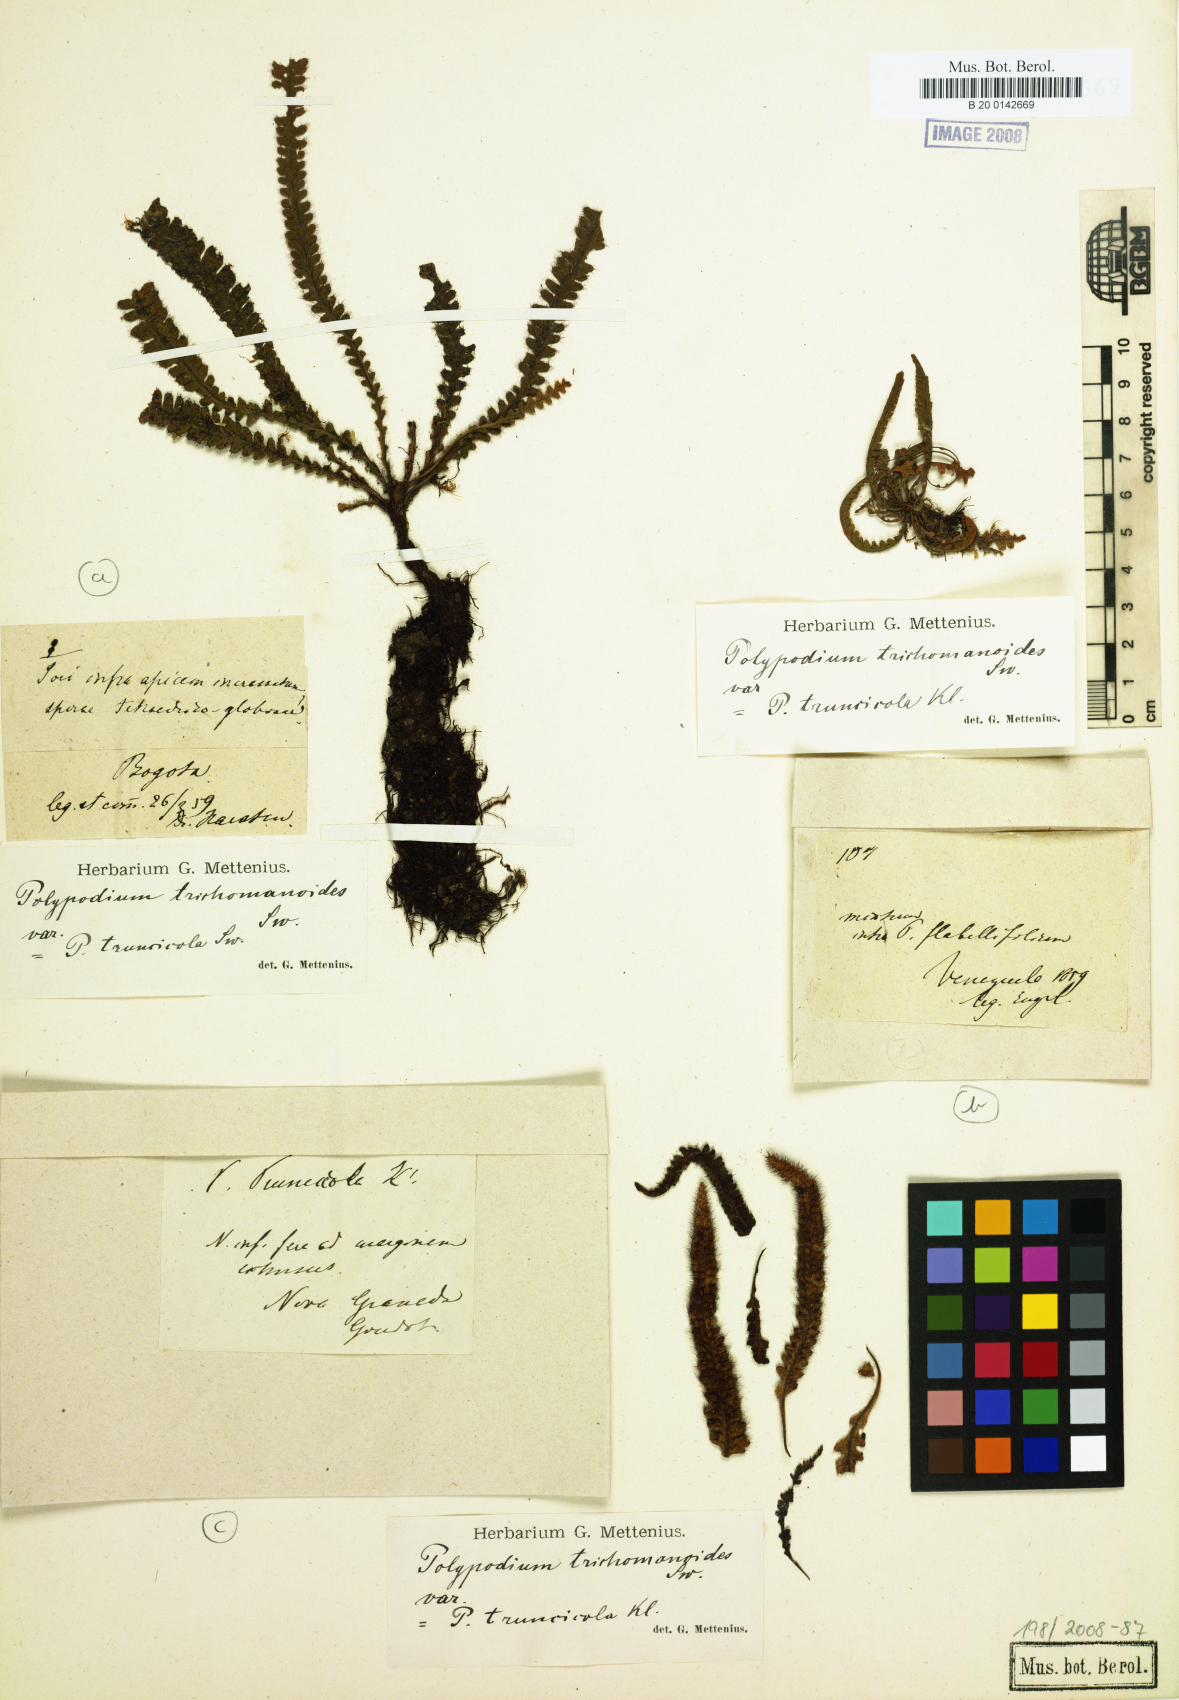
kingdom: Plantae
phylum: Tracheophyta
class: Polypodiopsida
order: Polypodiales
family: Polypodiaceae
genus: Moranopteris
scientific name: Moranopteris truncicola
